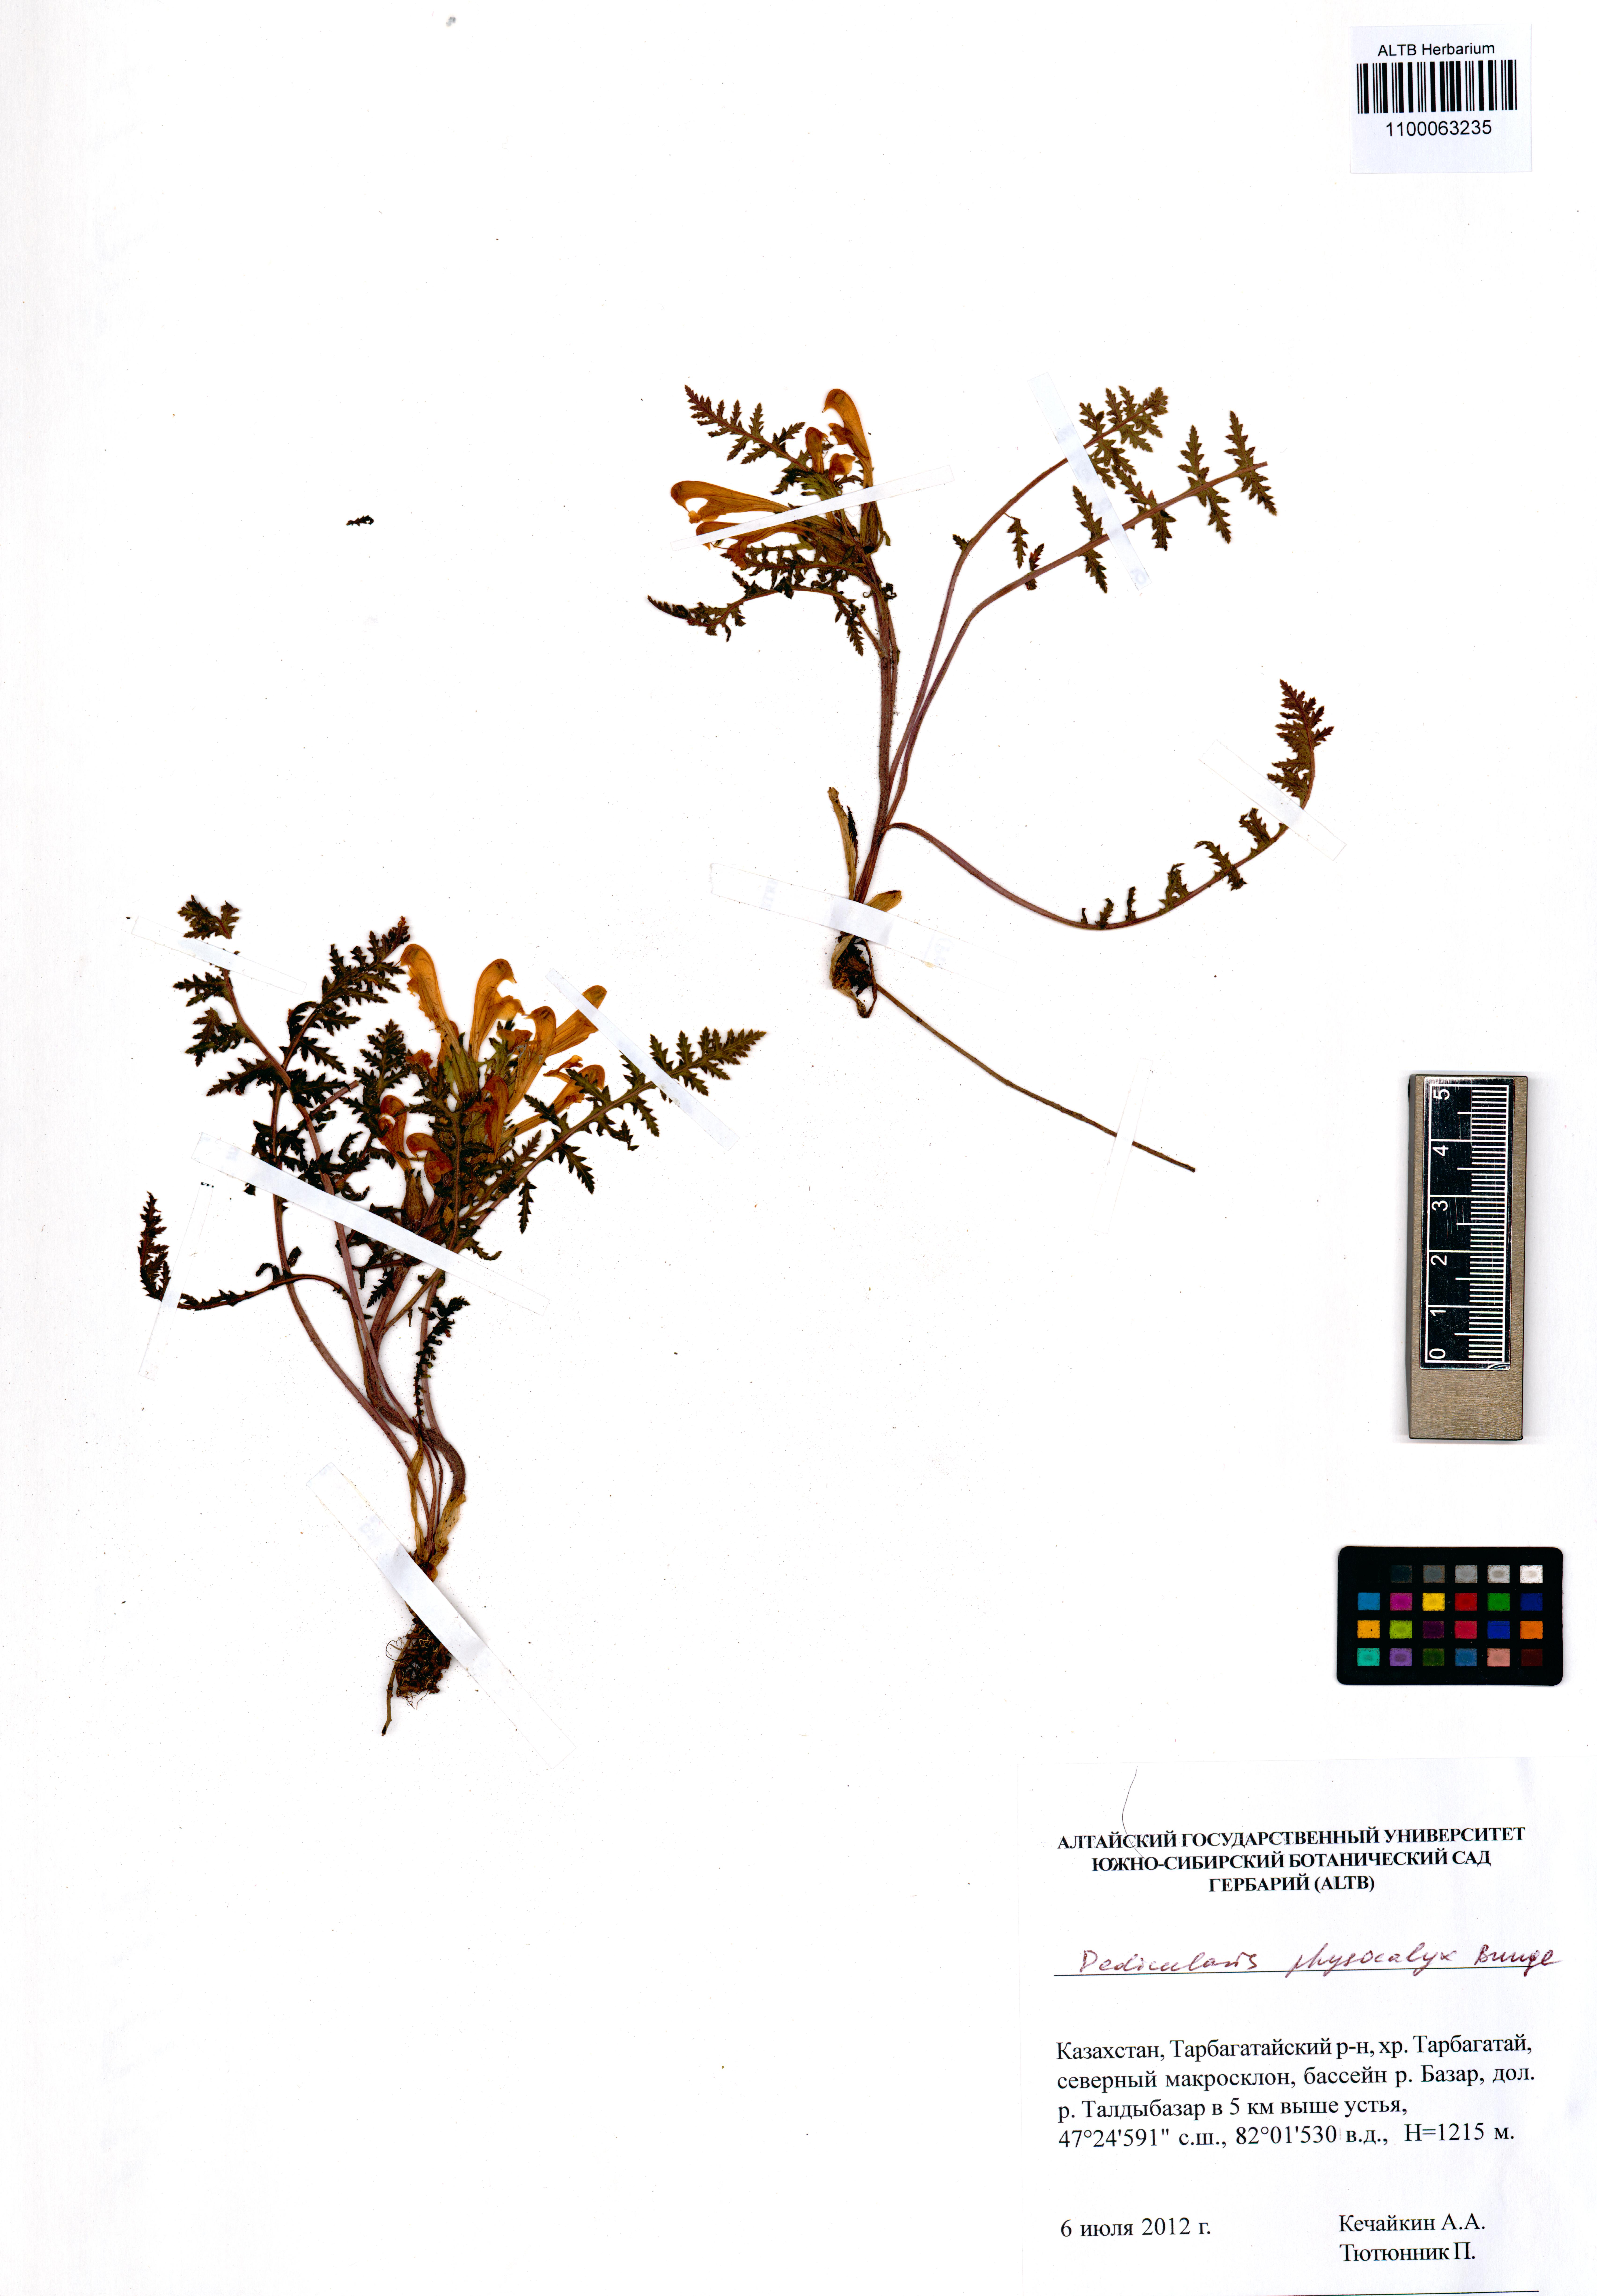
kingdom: Plantae
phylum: Tracheophyta
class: Magnoliopsida
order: Lamiales
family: Orobanchaceae
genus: Pedicularis
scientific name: Pedicularis physocalyx
